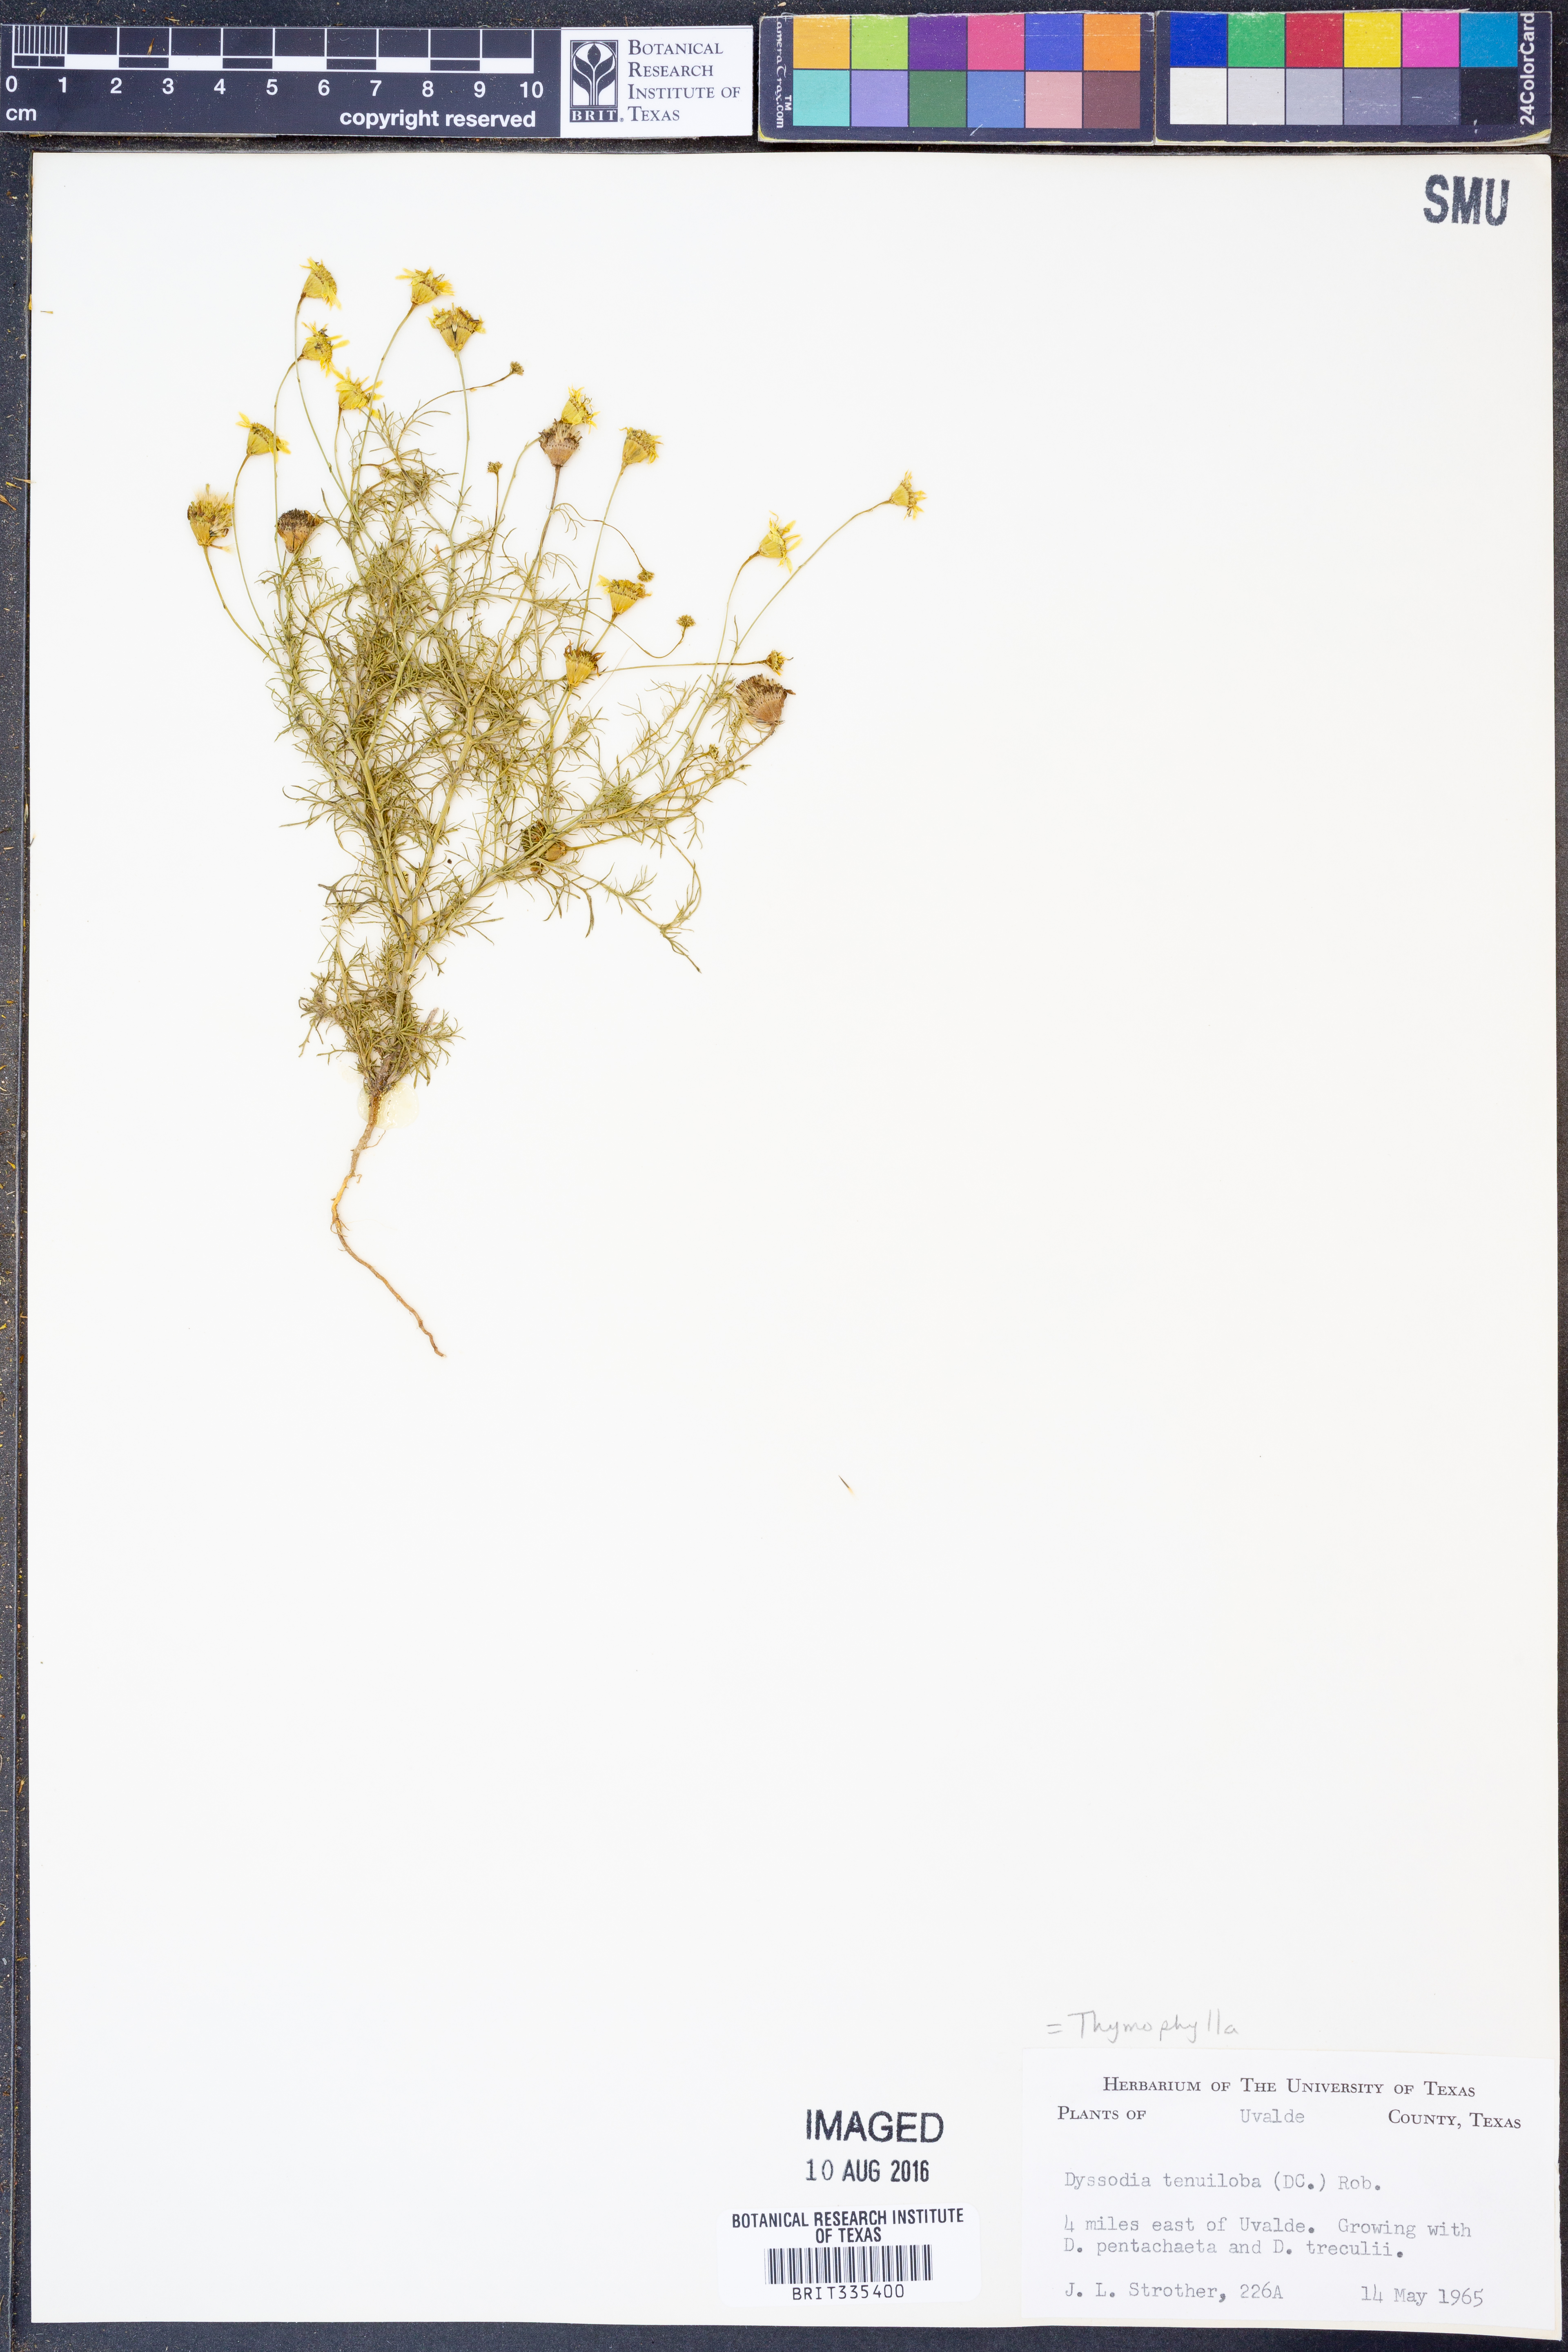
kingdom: Plantae
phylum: Tracheophyta
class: Magnoliopsida
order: Asterales
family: Asteraceae
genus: Thymophylla
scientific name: Thymophylla tenuiloba
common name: Dahlberg's daisy
